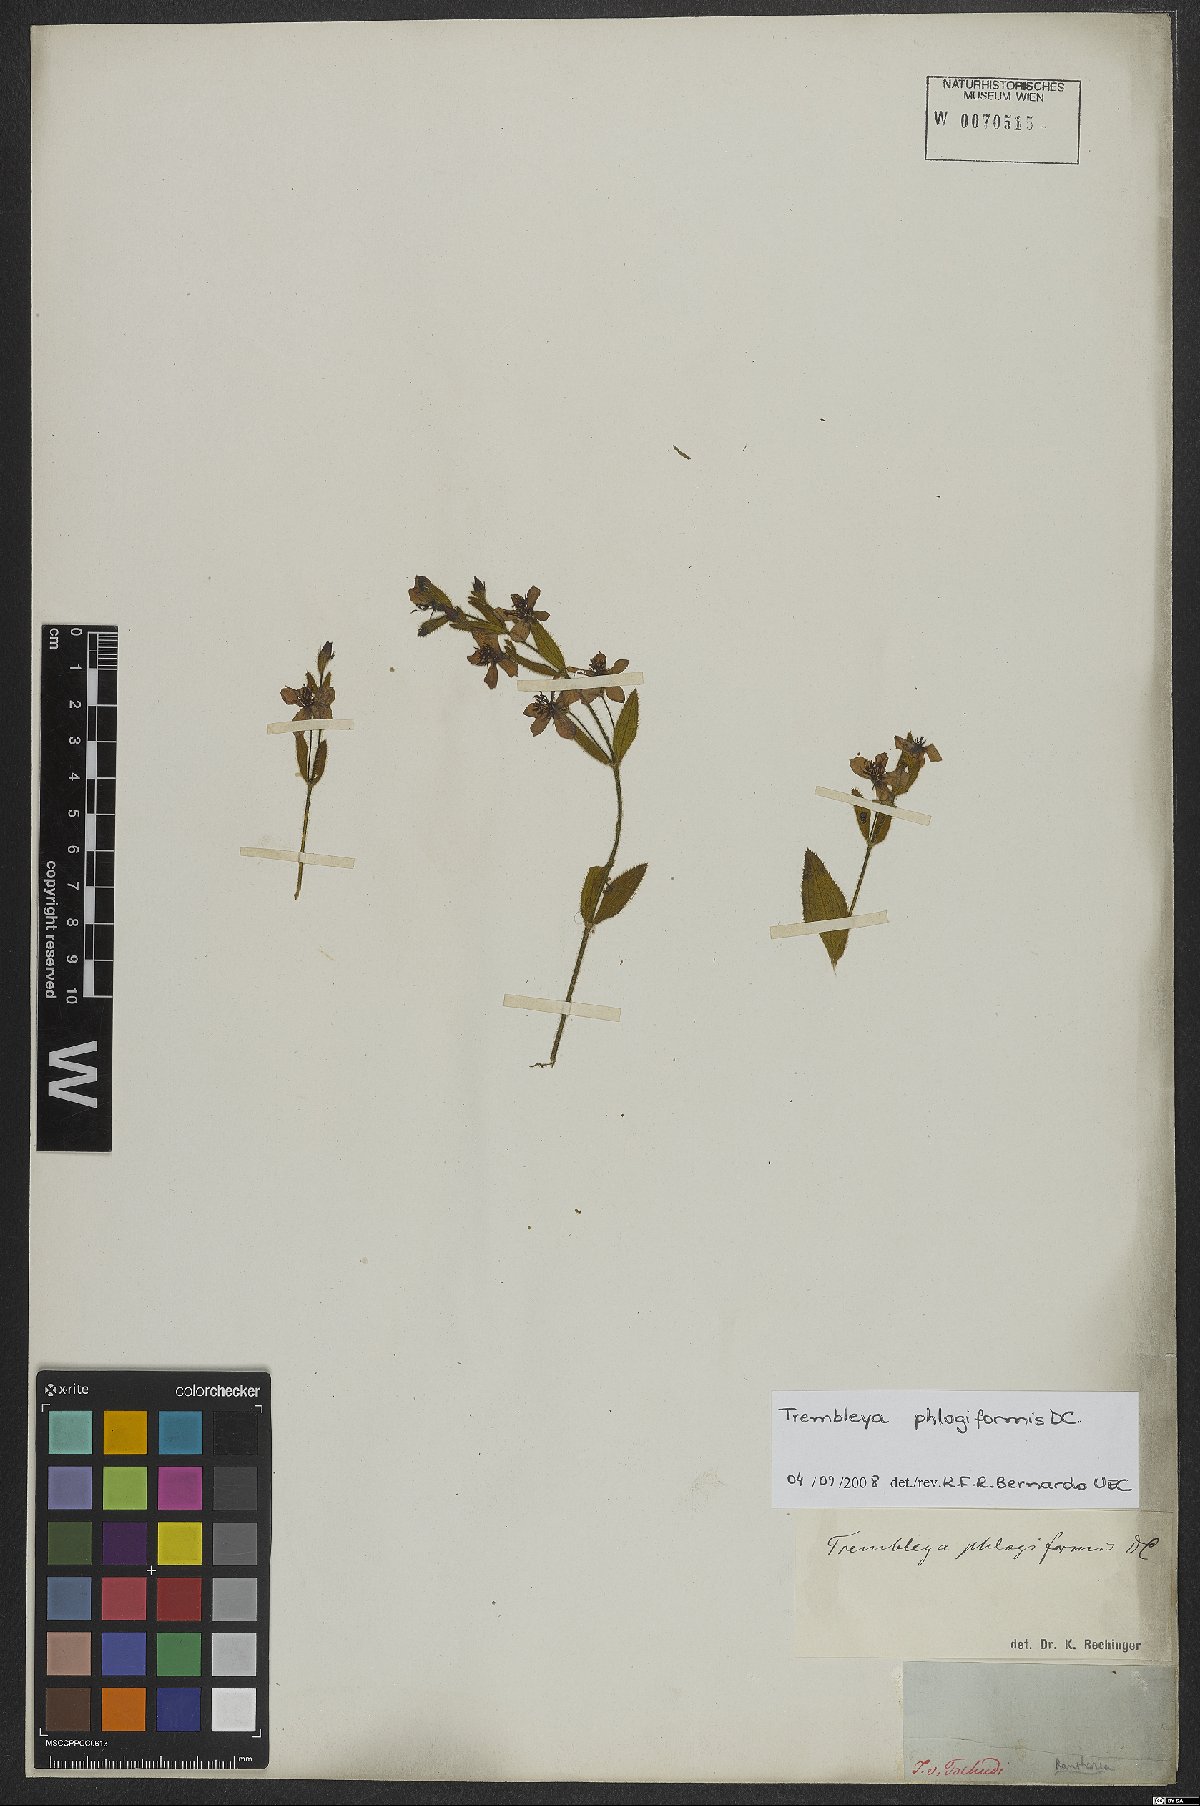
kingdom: Plantae
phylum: Tracheophyta
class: Magnoliopsida
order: Myrtales
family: Melastomataceae
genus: Microlicia
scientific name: Microlicia phlogiformis
